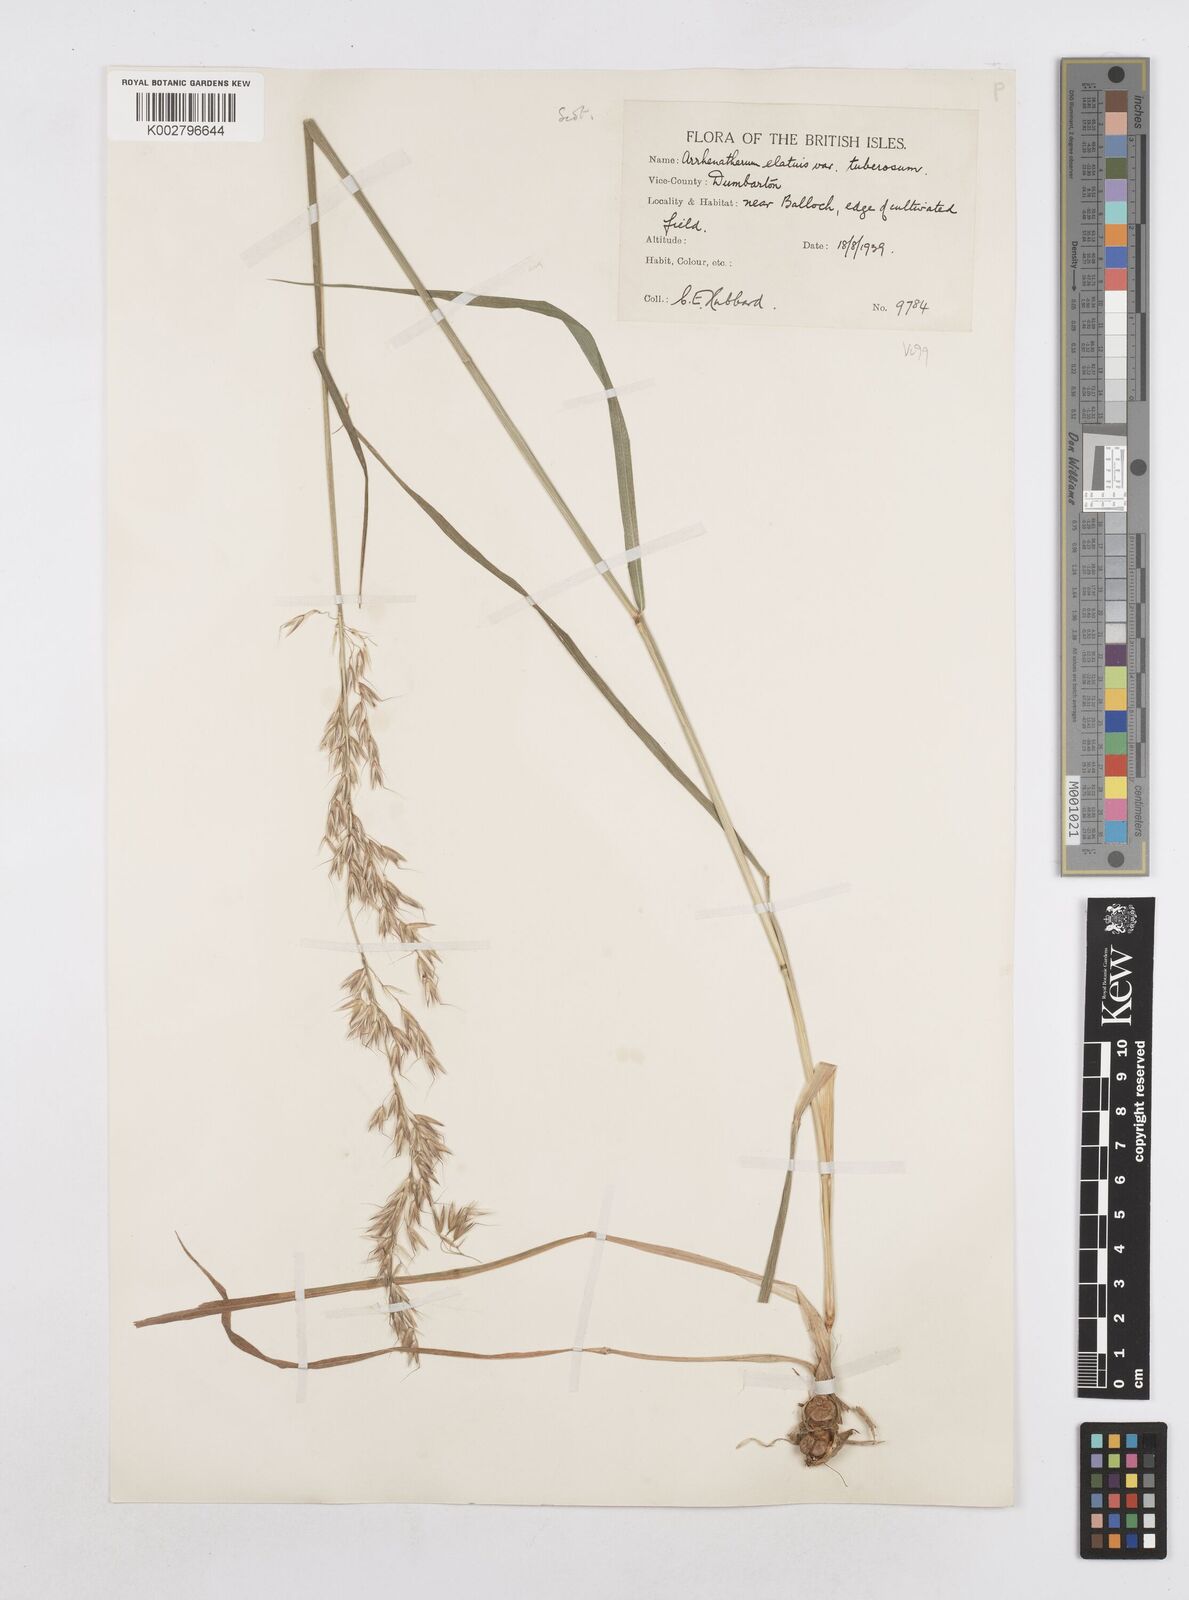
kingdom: Plantae
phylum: Tracheophyta
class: Liliopsida
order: Poales
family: Poaceae
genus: Arrhenatherum
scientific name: Arrhenatherum elatius
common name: Tall oatgrass
